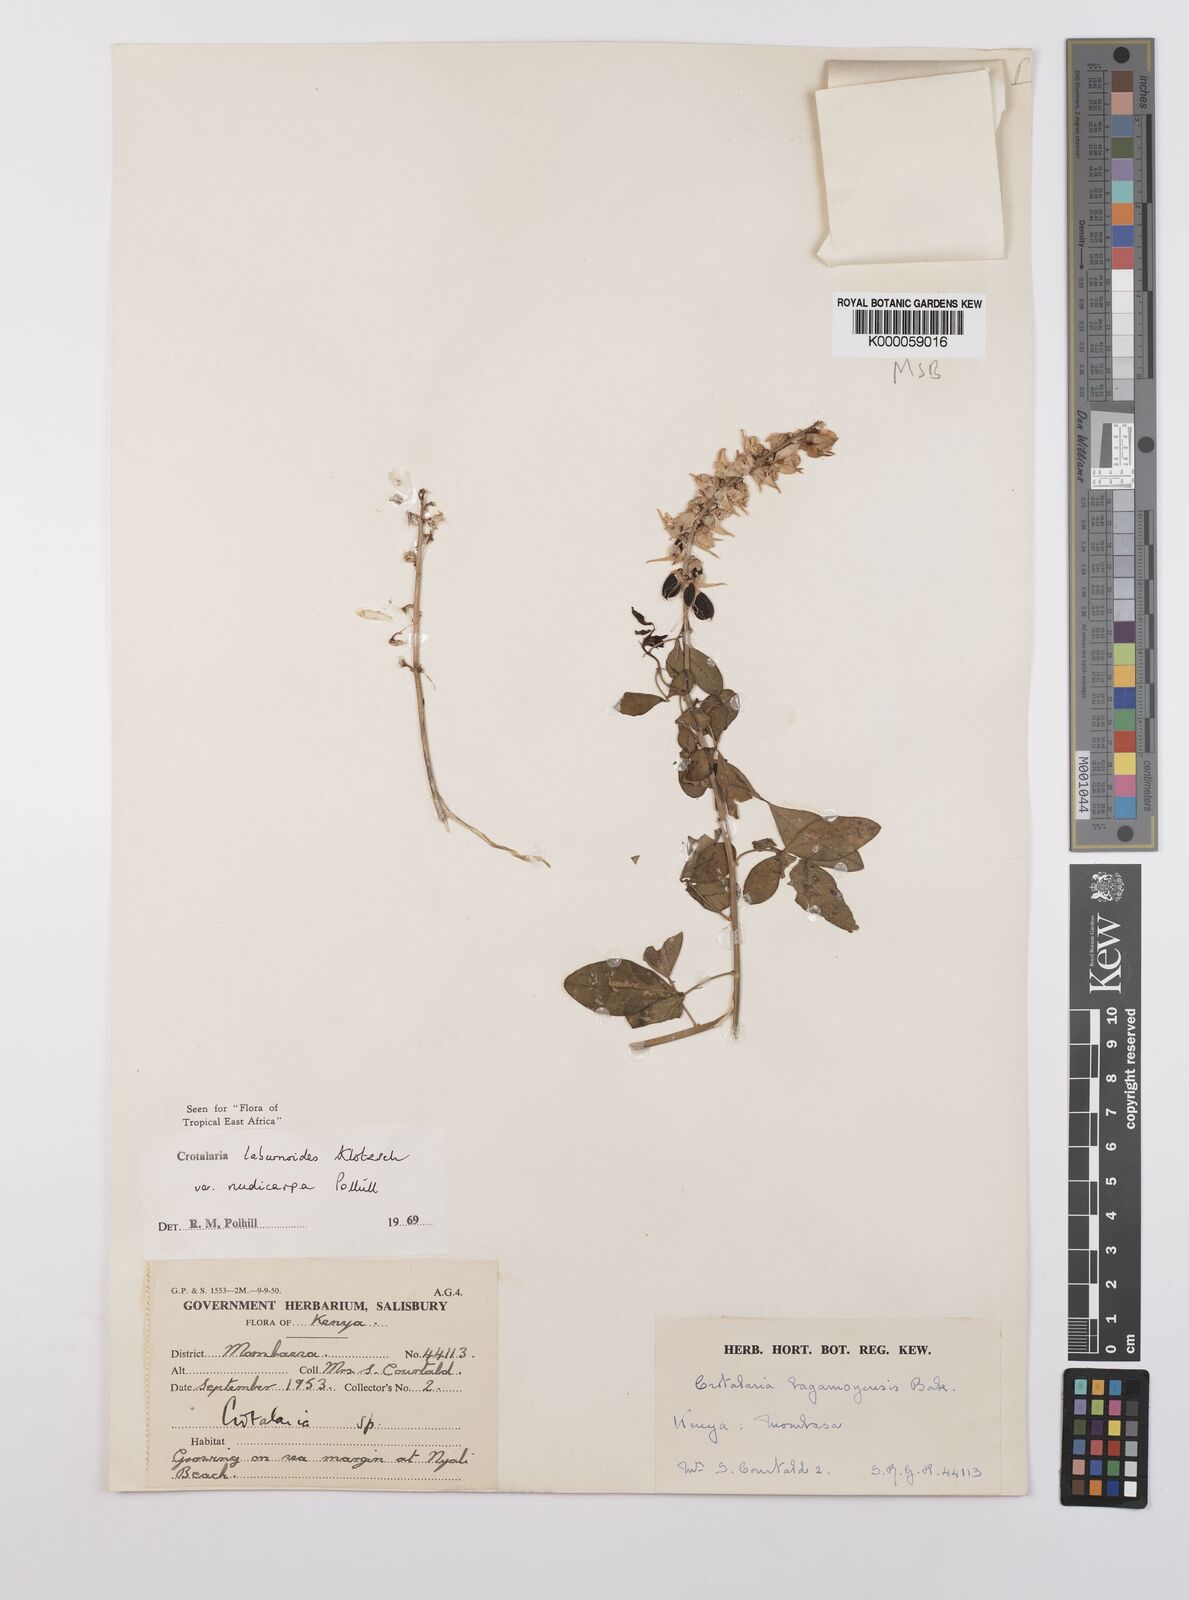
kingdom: Plantae
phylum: Tracheophyta
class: Magnoliopsida
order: Fabales
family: Fabaceae
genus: Crotalaria
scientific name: Crotalaria laburnoides
